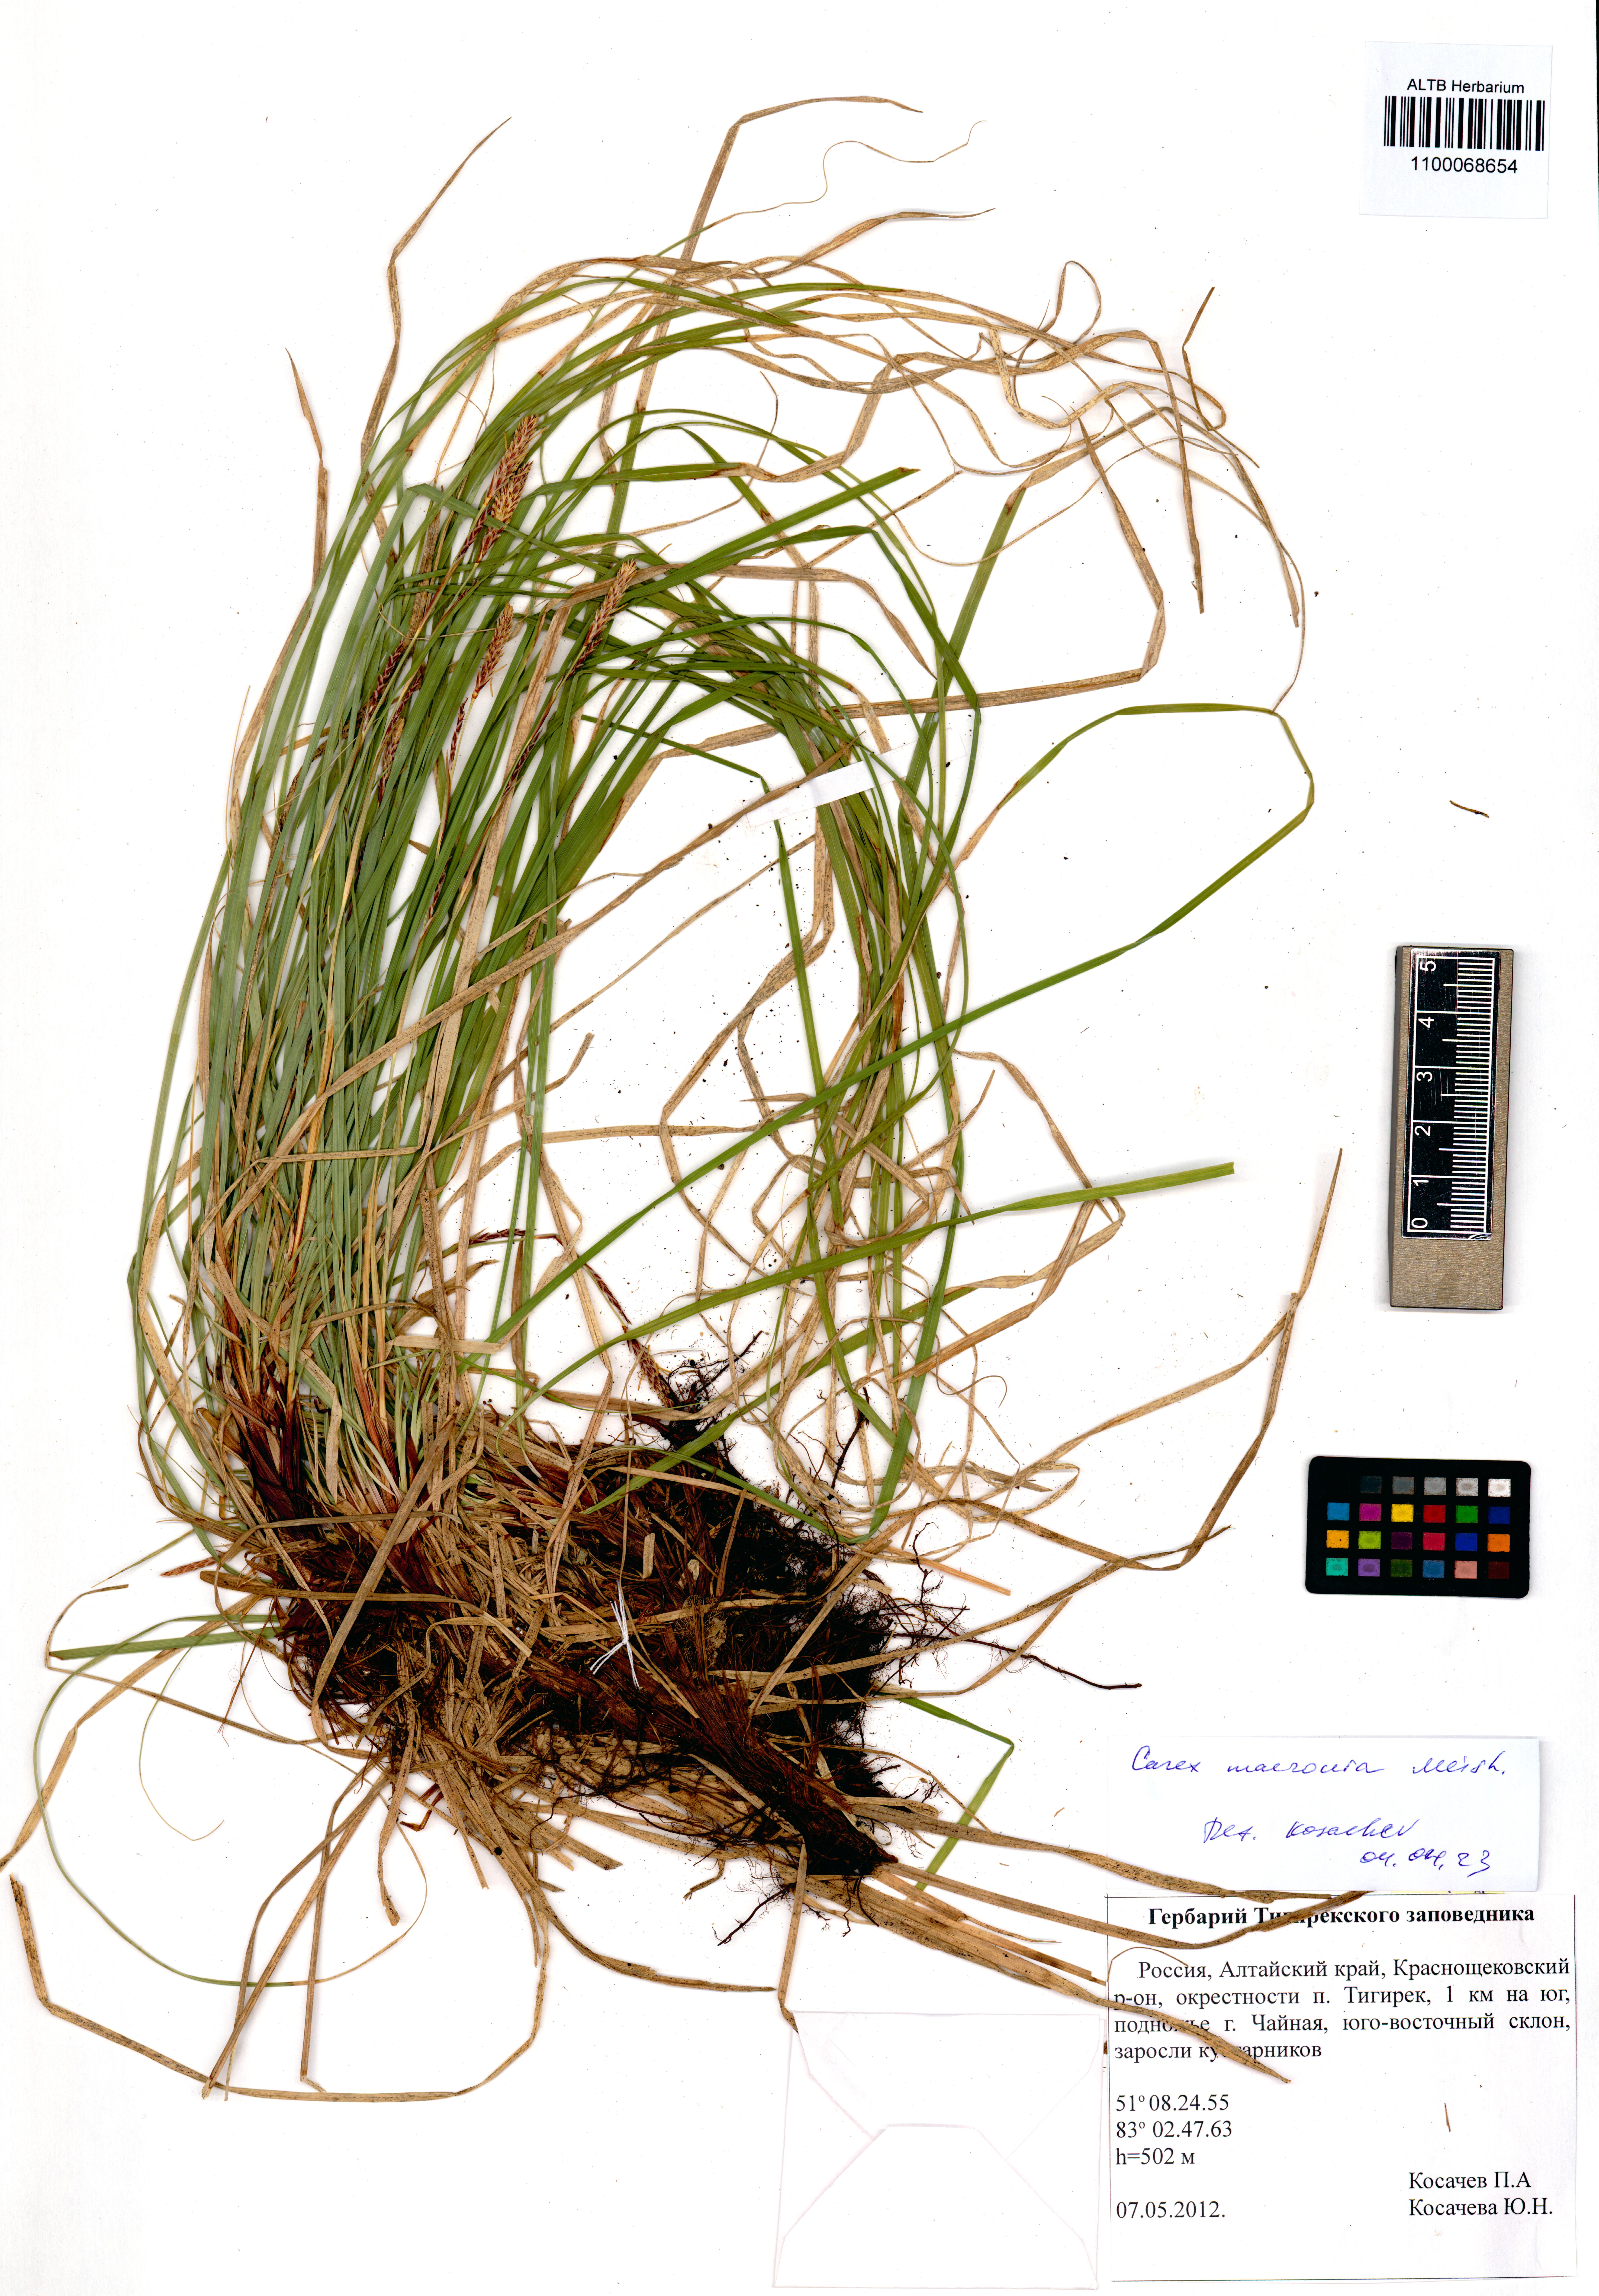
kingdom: Plantae
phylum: Tracheophyta
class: Liliopsida
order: Poales
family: Cyperaceae
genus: Carex
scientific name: Carex pediformis
